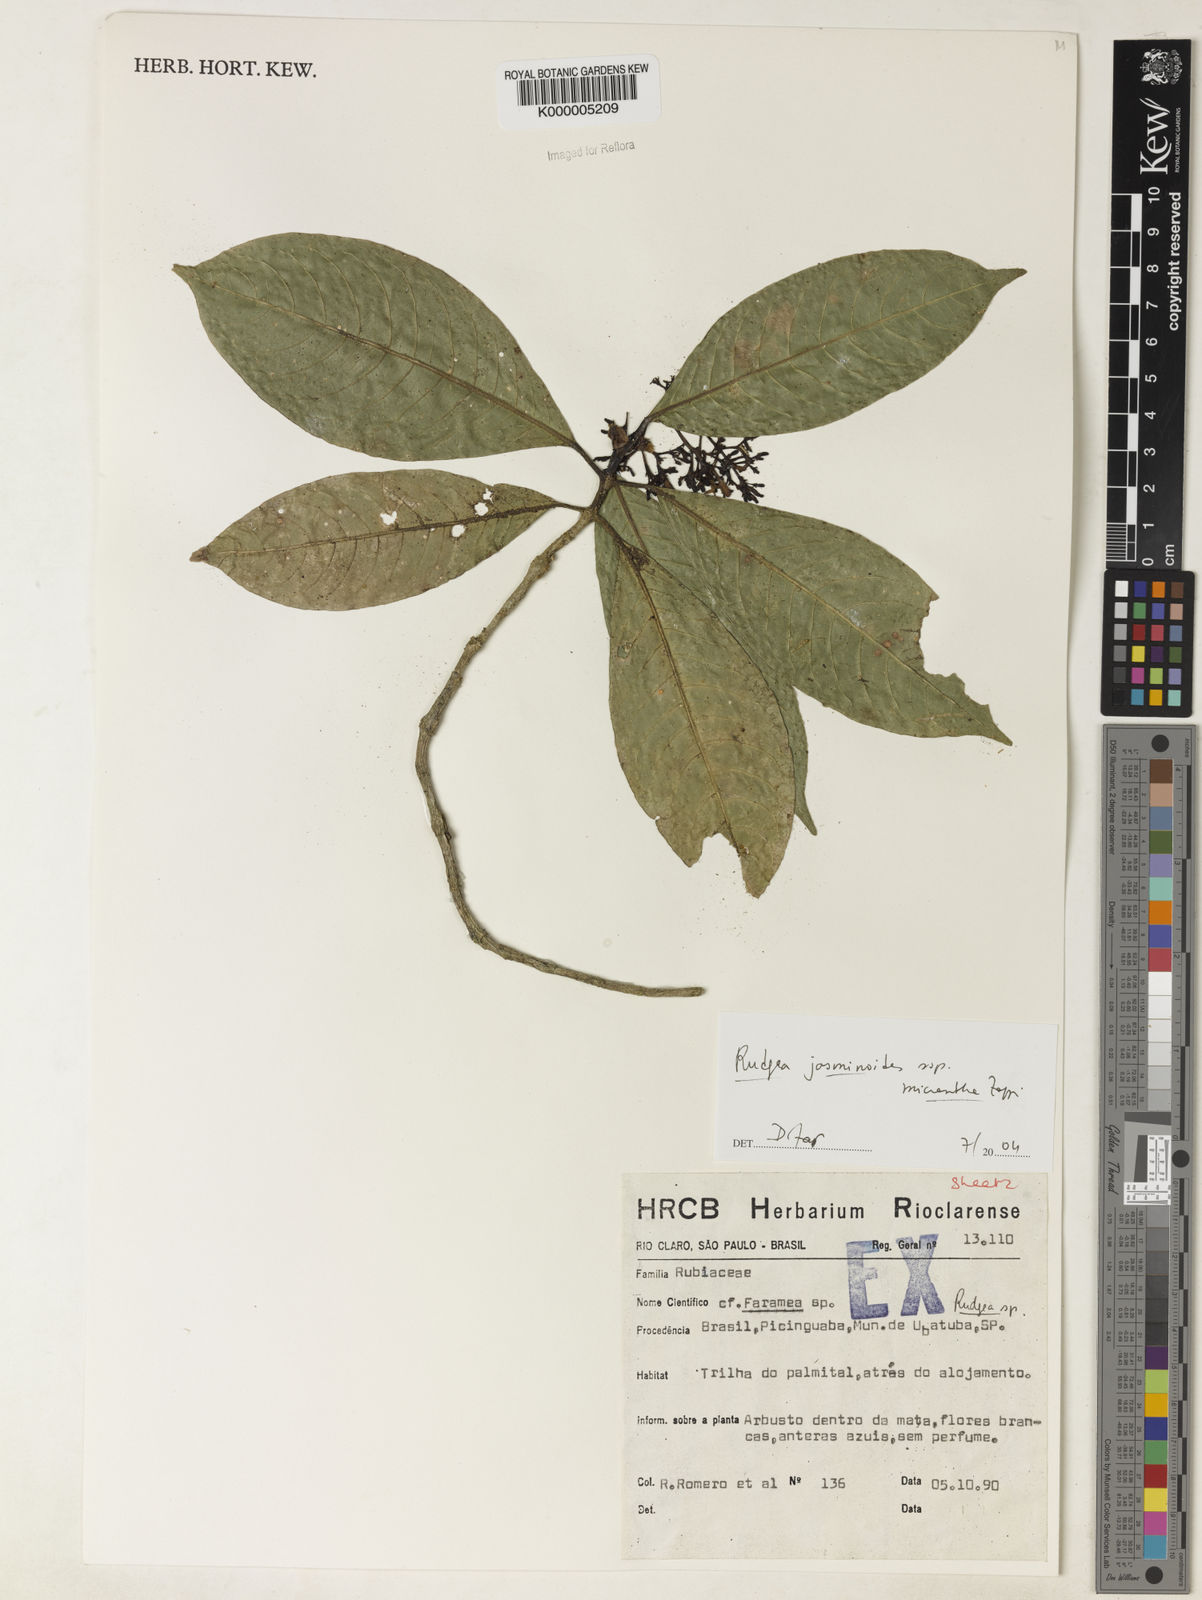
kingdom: Plantae
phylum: Tracheophyta
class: Magnoliopsida
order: Gentianales
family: Rubiaceae
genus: Rudgea
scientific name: Rudgea jasminoides
